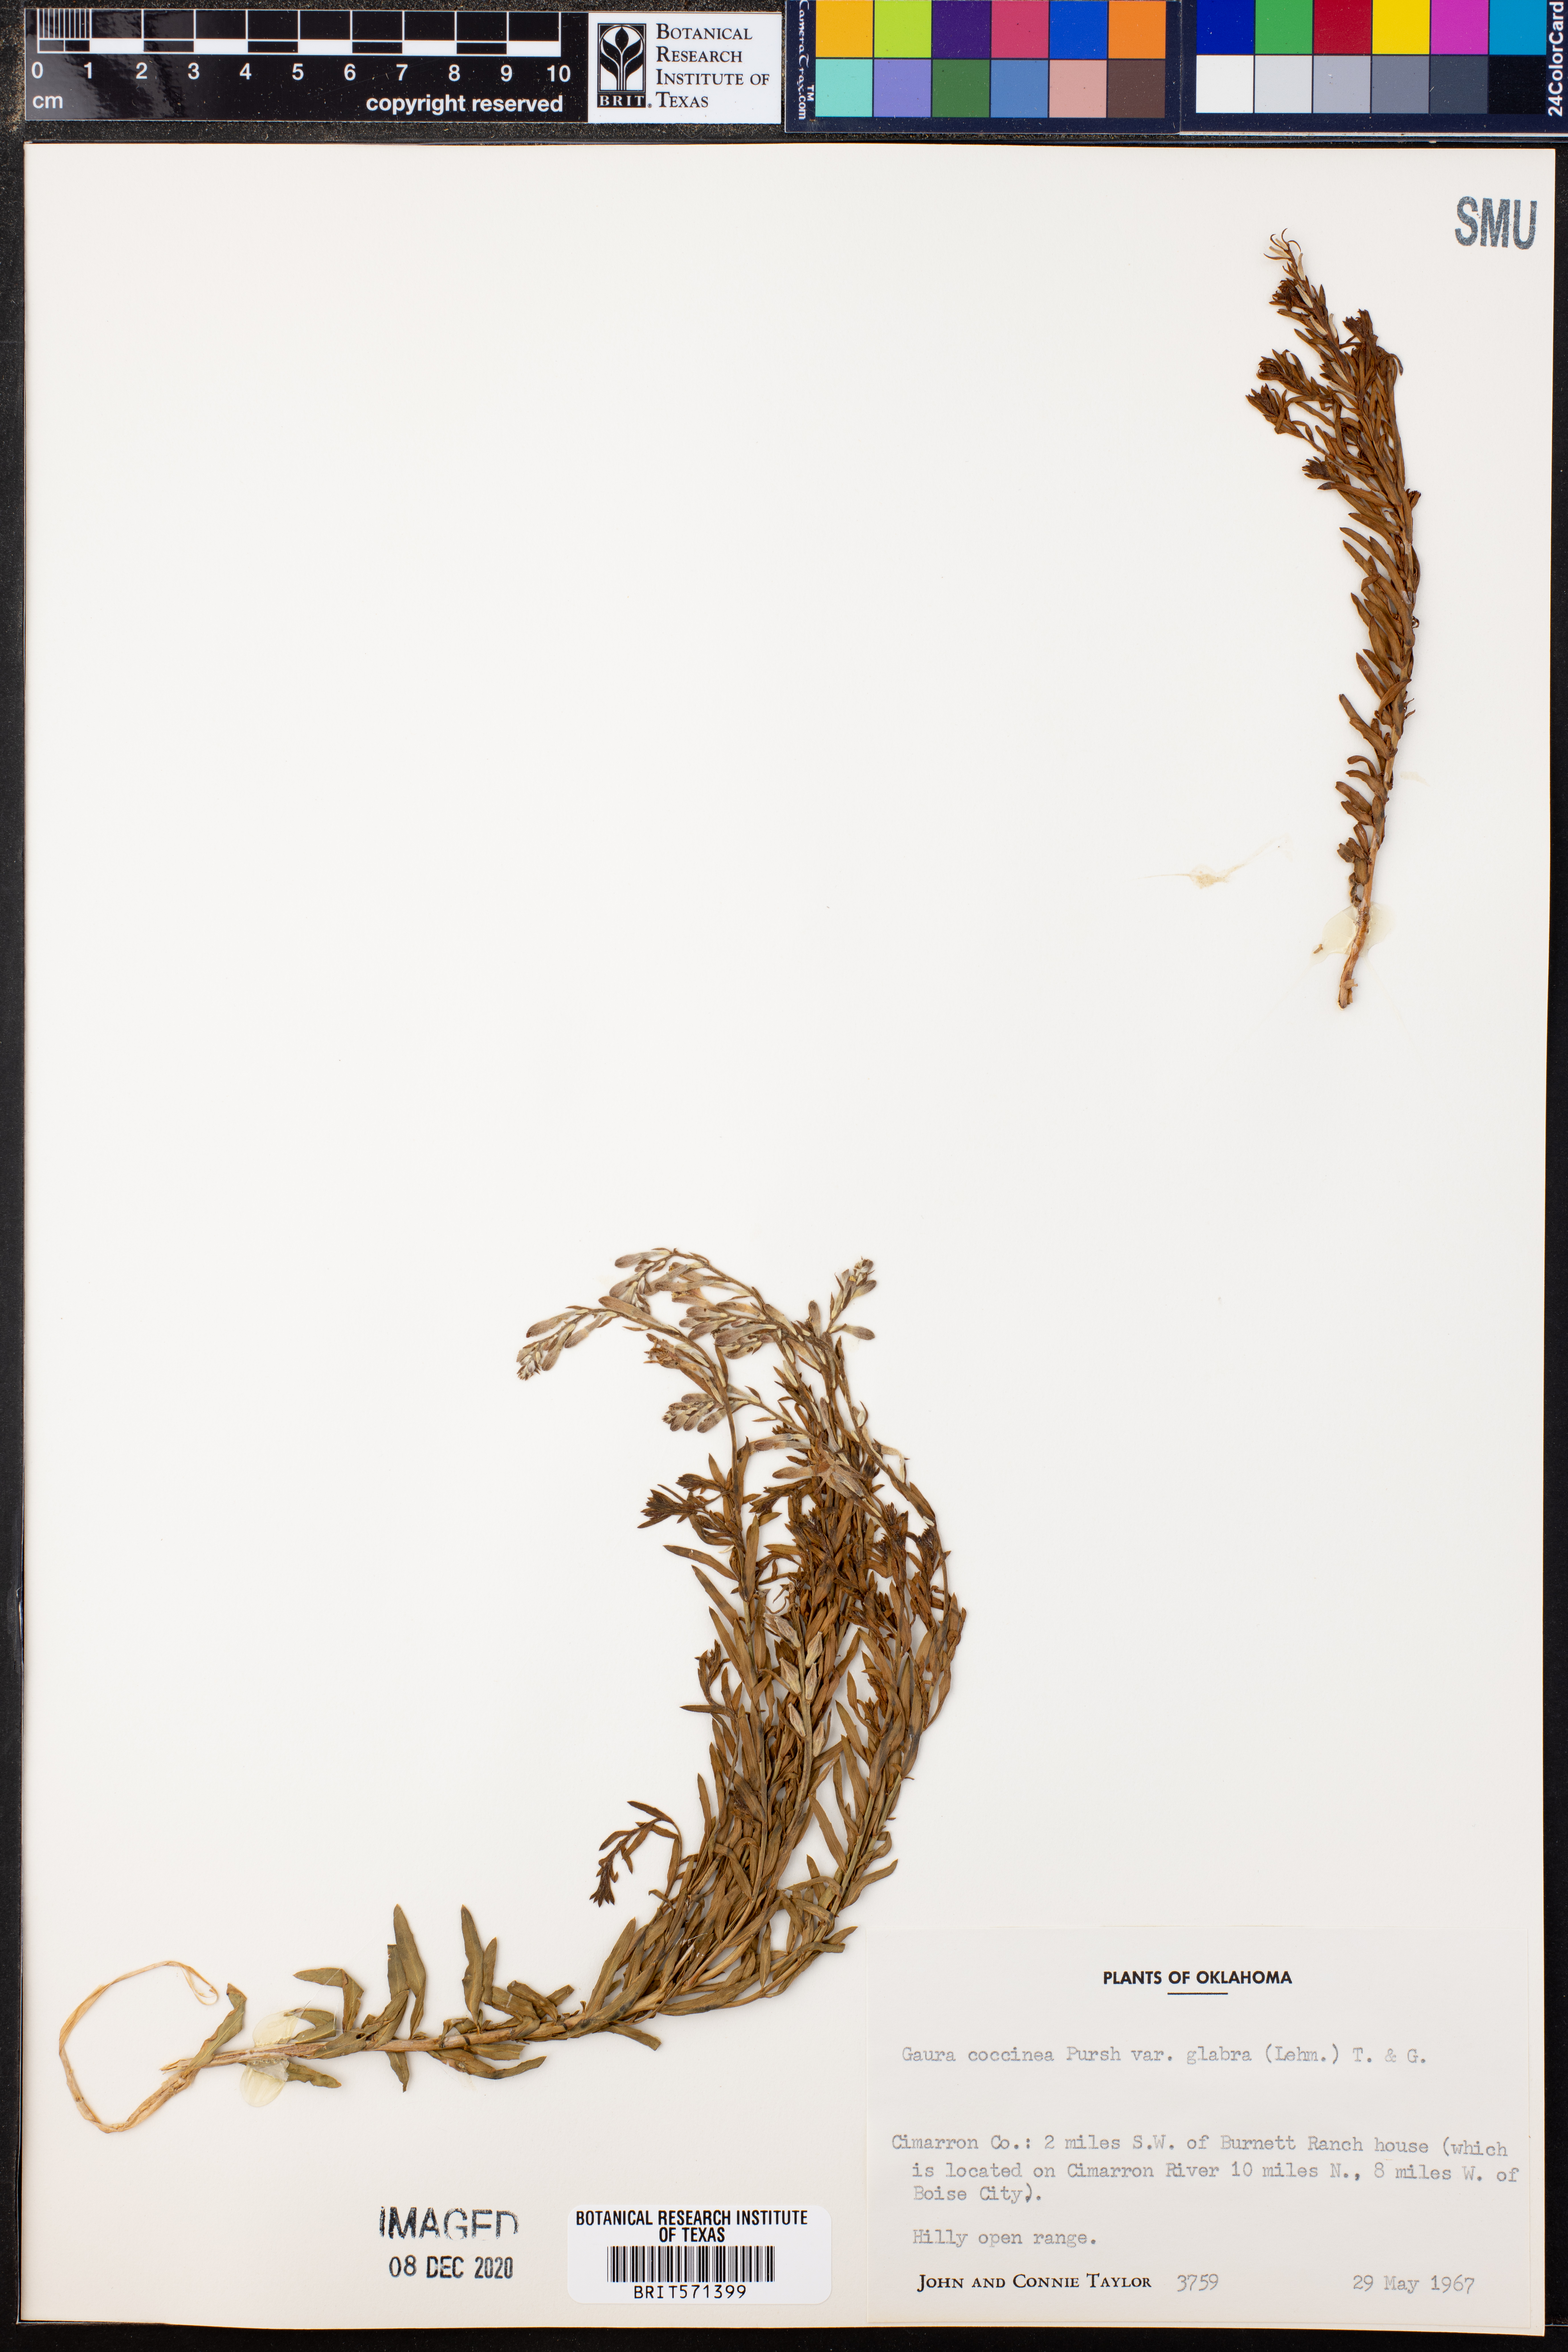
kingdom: Plantae
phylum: Tracheophyta
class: Magnoliopsida
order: Myrtales
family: Onagraceae
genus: Oenothera
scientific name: Oenothera suffrutescens
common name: Scarlet beeblossom
